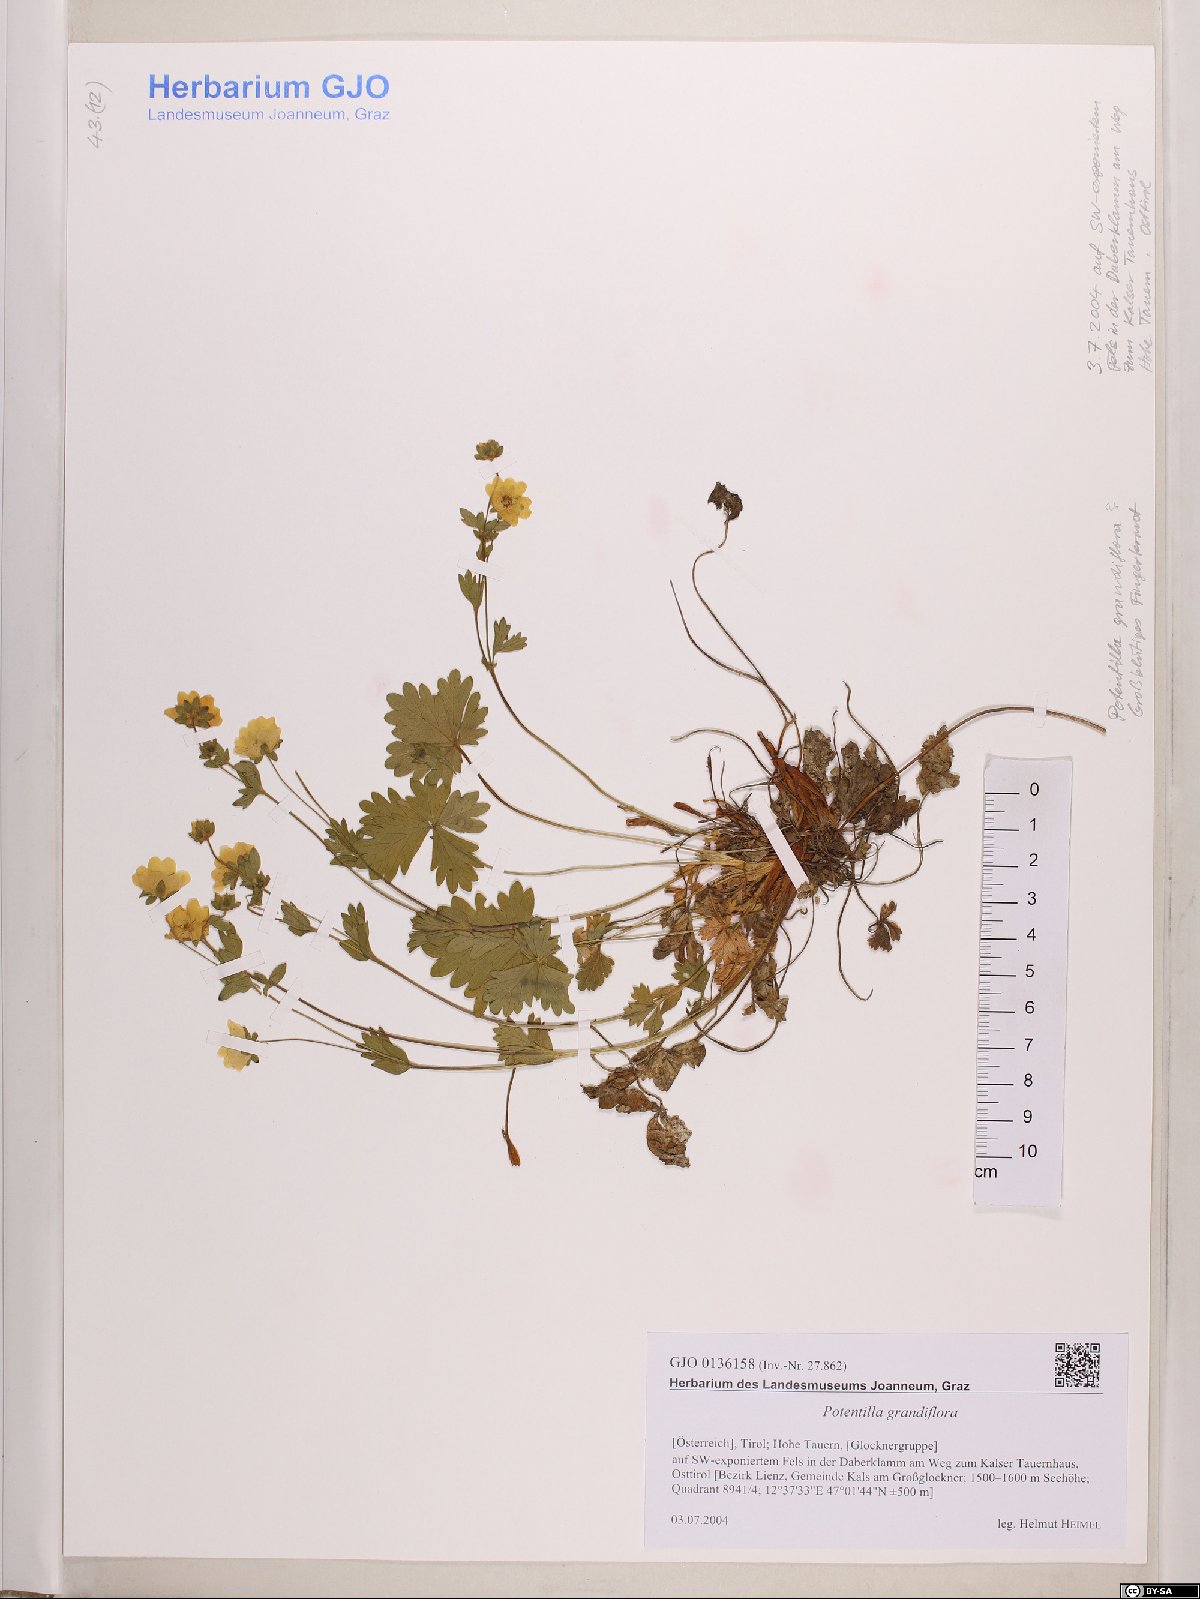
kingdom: Plantae
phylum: Tracheophyta
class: Magnoliopsida
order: Rosales
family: Rosaceae
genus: Potentilla
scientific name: Potentilla grandiflora
